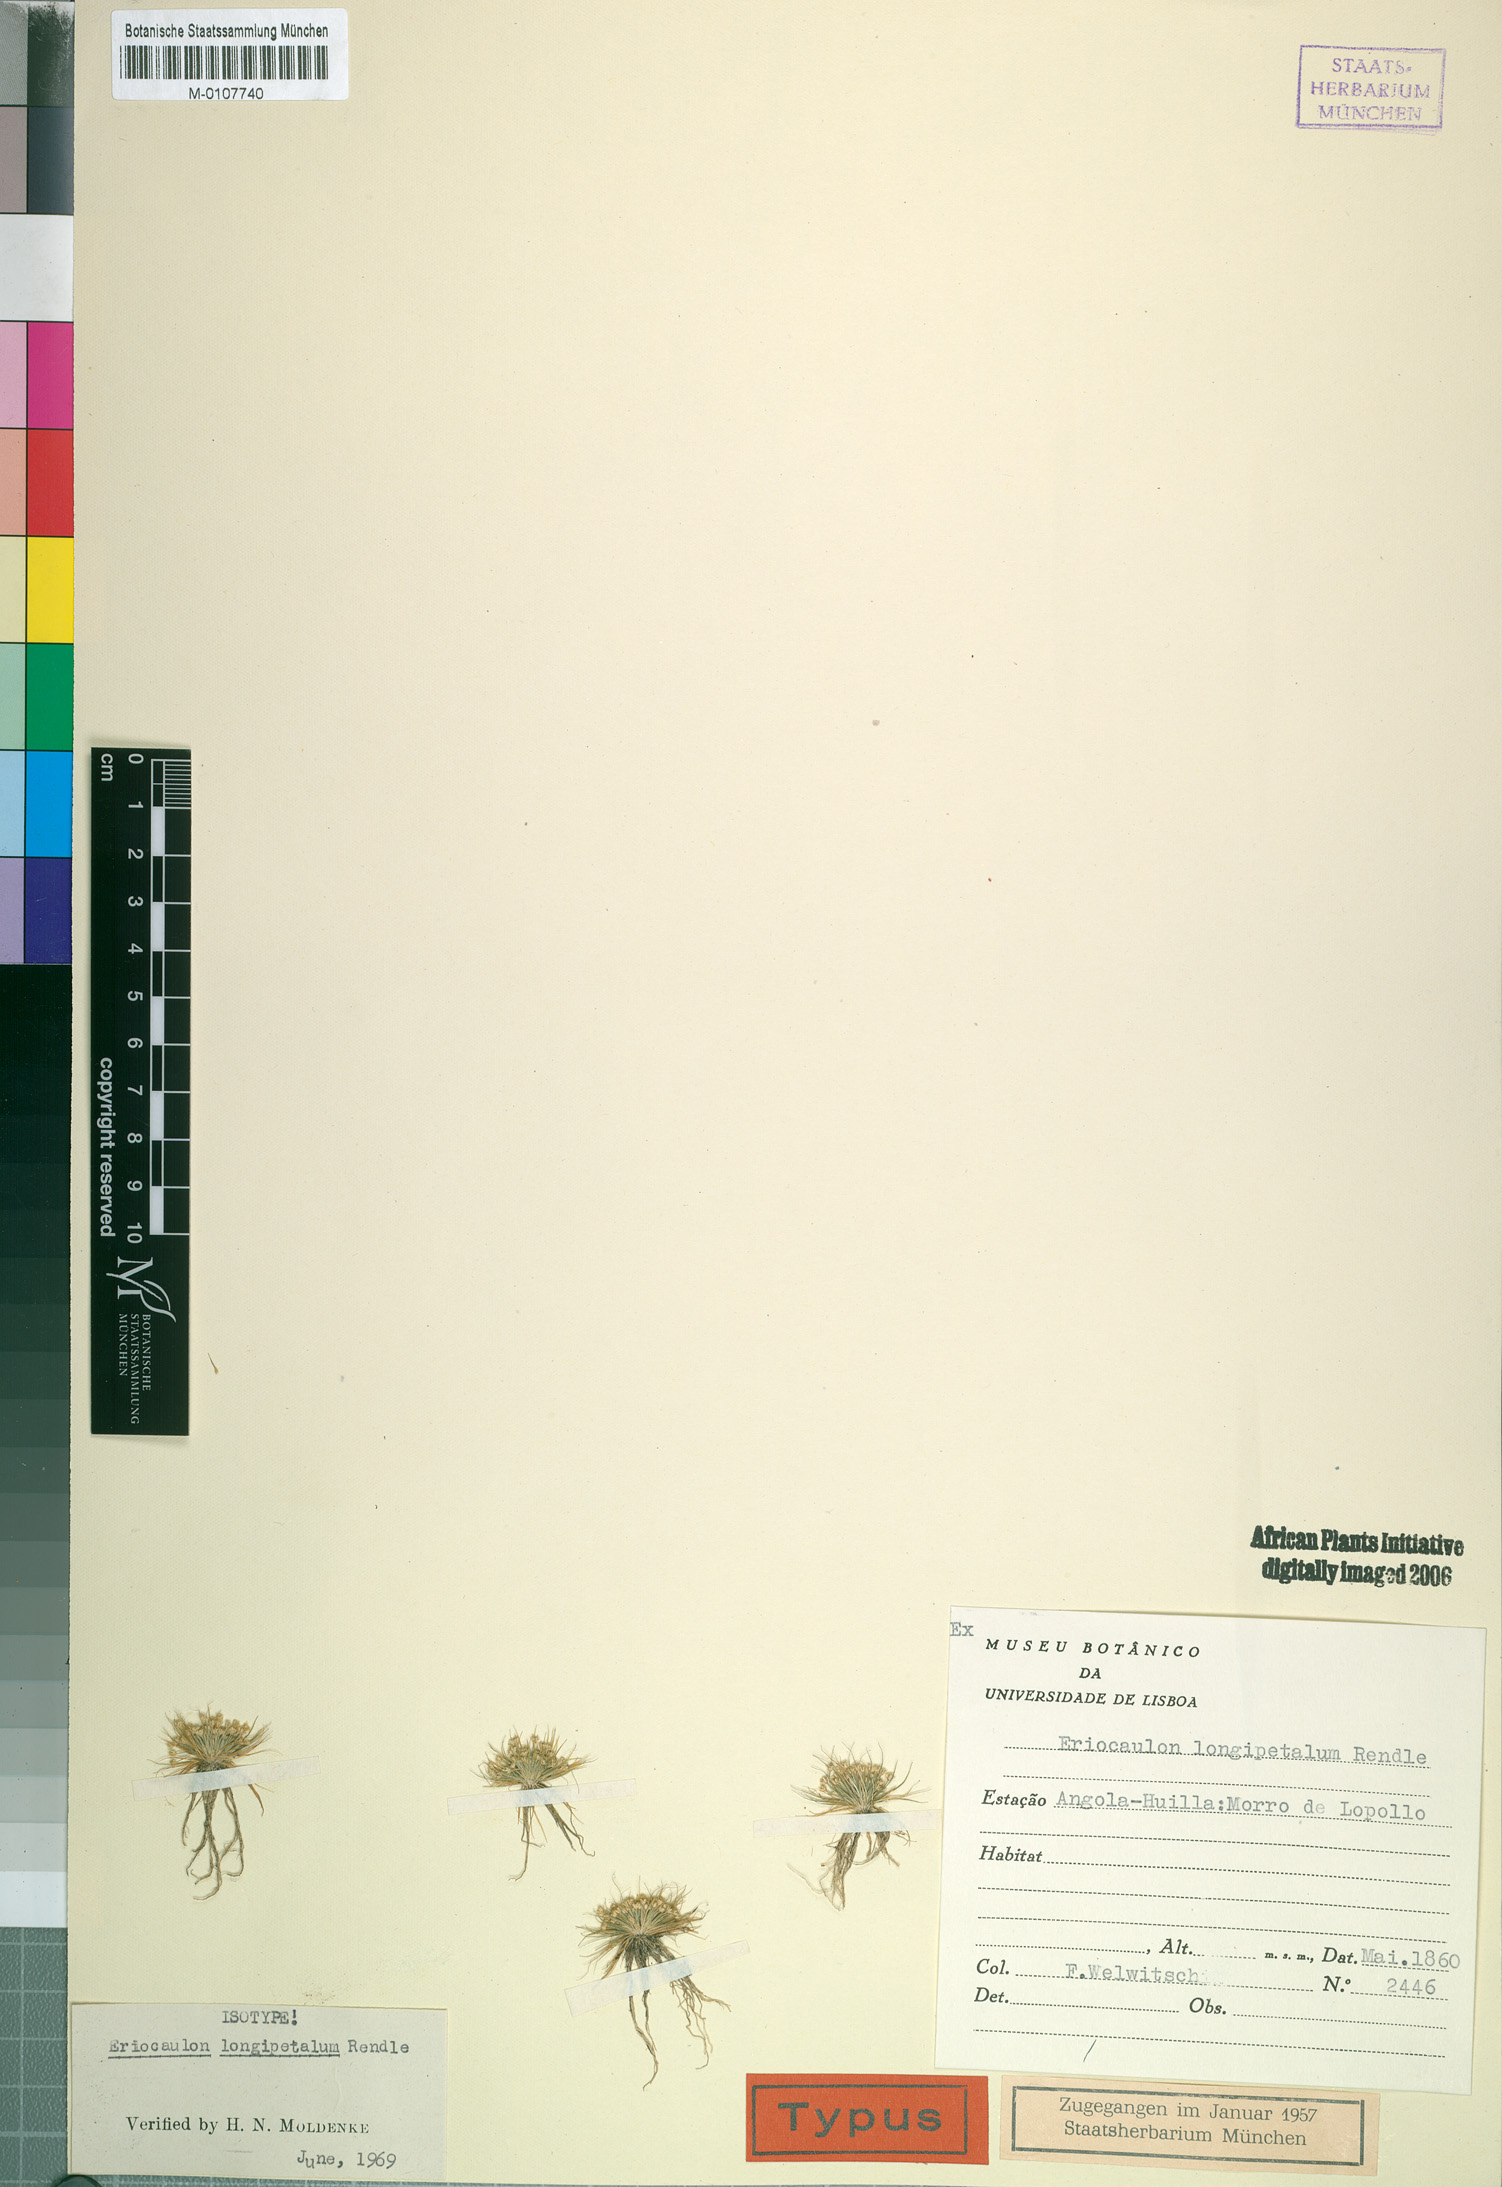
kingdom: Plantae
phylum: Tracheophyta
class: Liliopsida
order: Poales
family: Eriocaulaceae
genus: Eriocaulon
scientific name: Eriocaulon longipetalum
